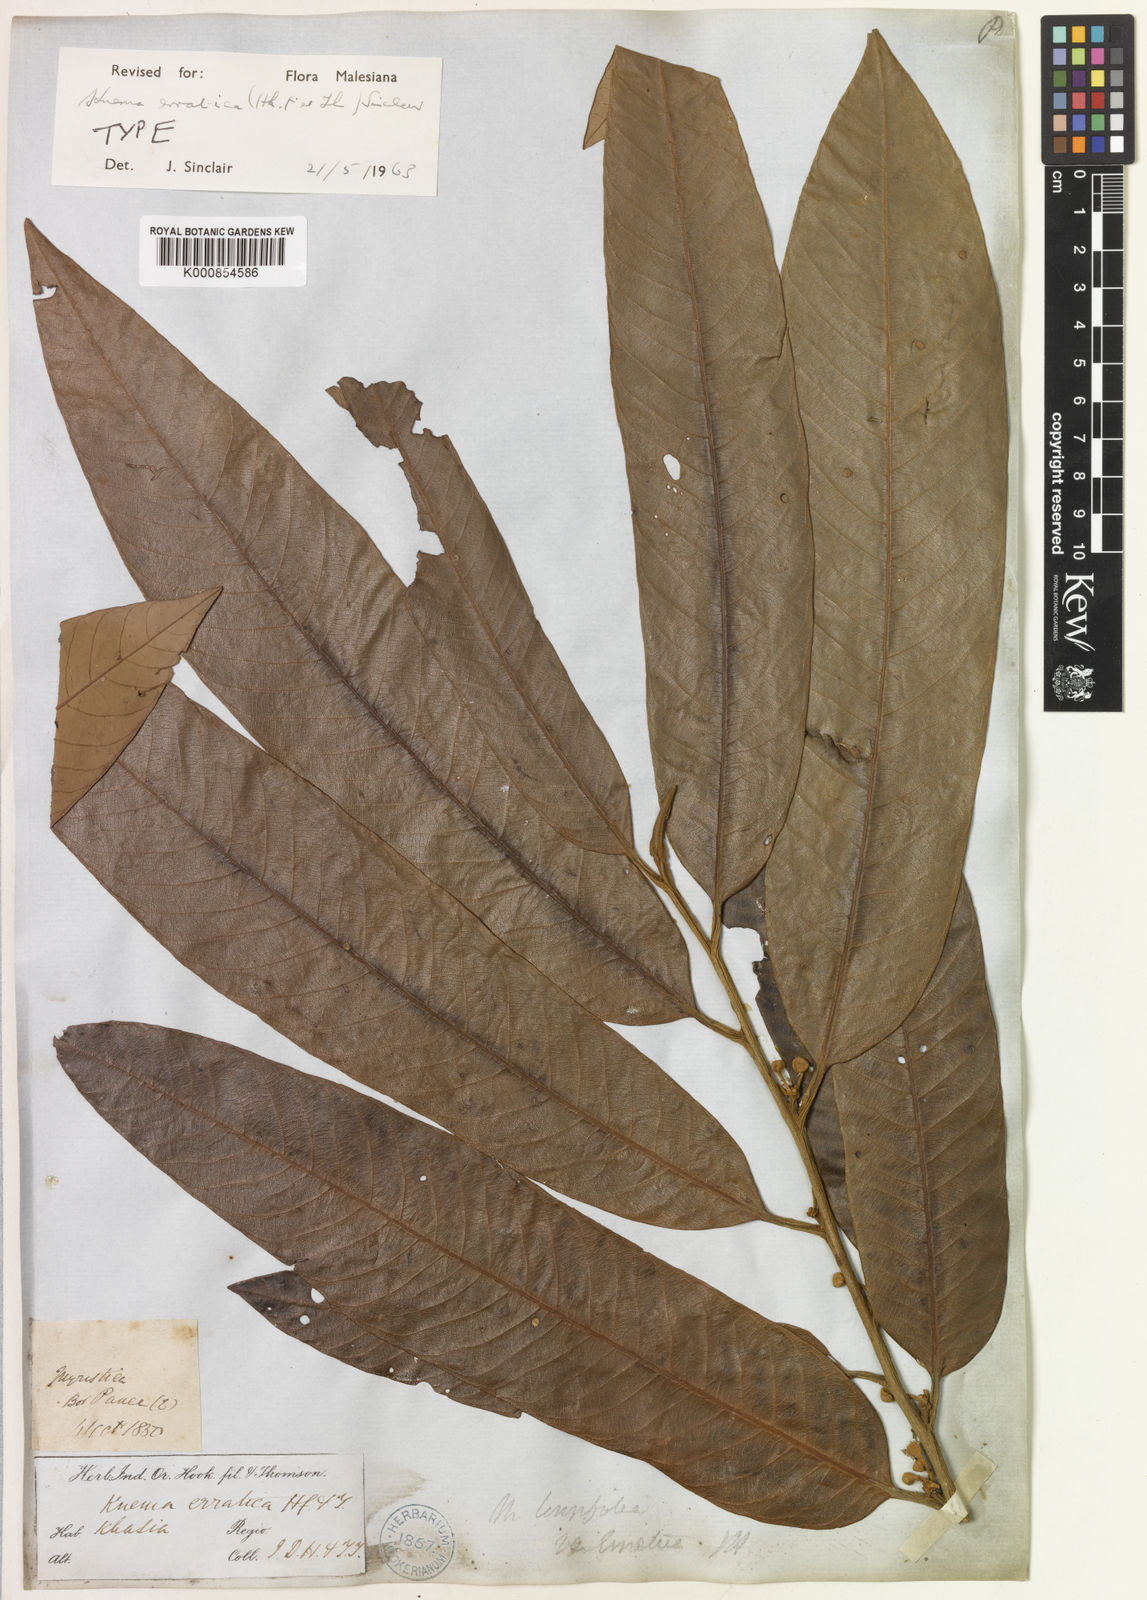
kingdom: Plantae
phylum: Tracheophyta
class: Magnoliopsida
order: Magnoliales
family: Myristicaceae
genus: Knema
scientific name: Knema erratica
